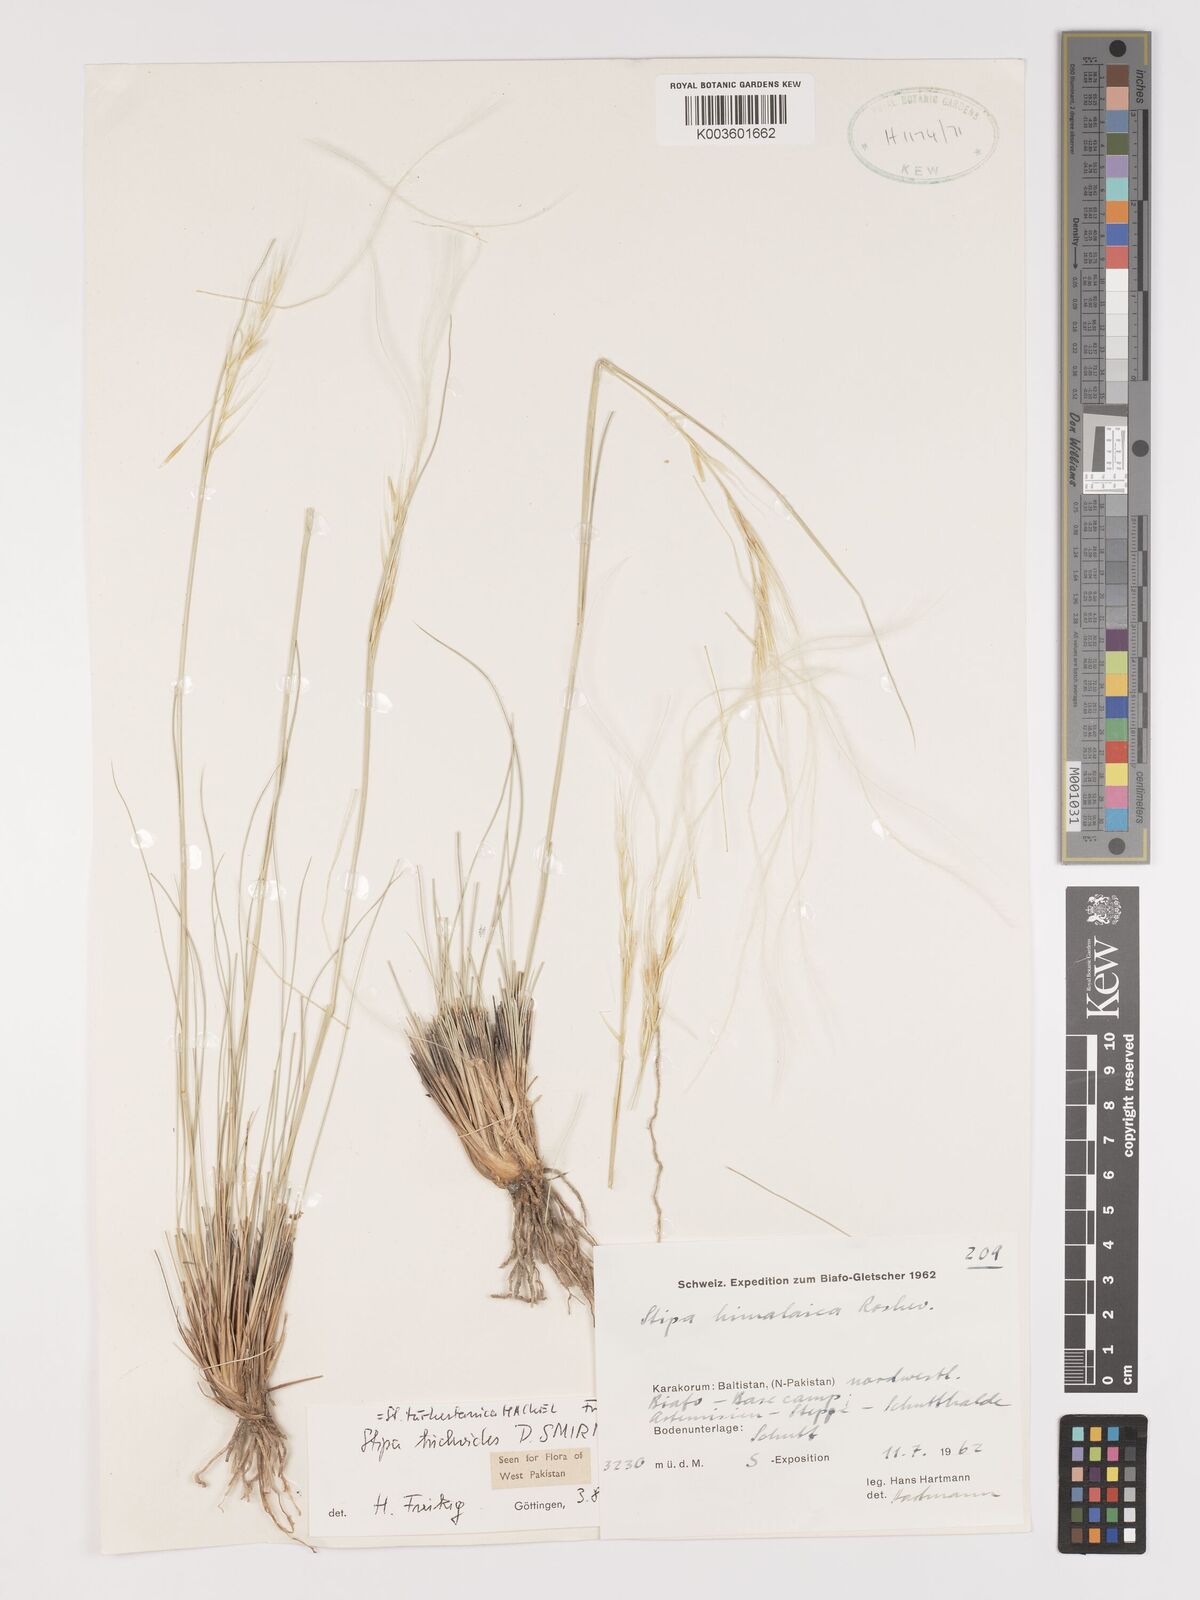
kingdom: Plantae
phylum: Tracheophyta
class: Liliopsida
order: Poales
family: Poaceae
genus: Stipa
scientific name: Stipa turkestanica
